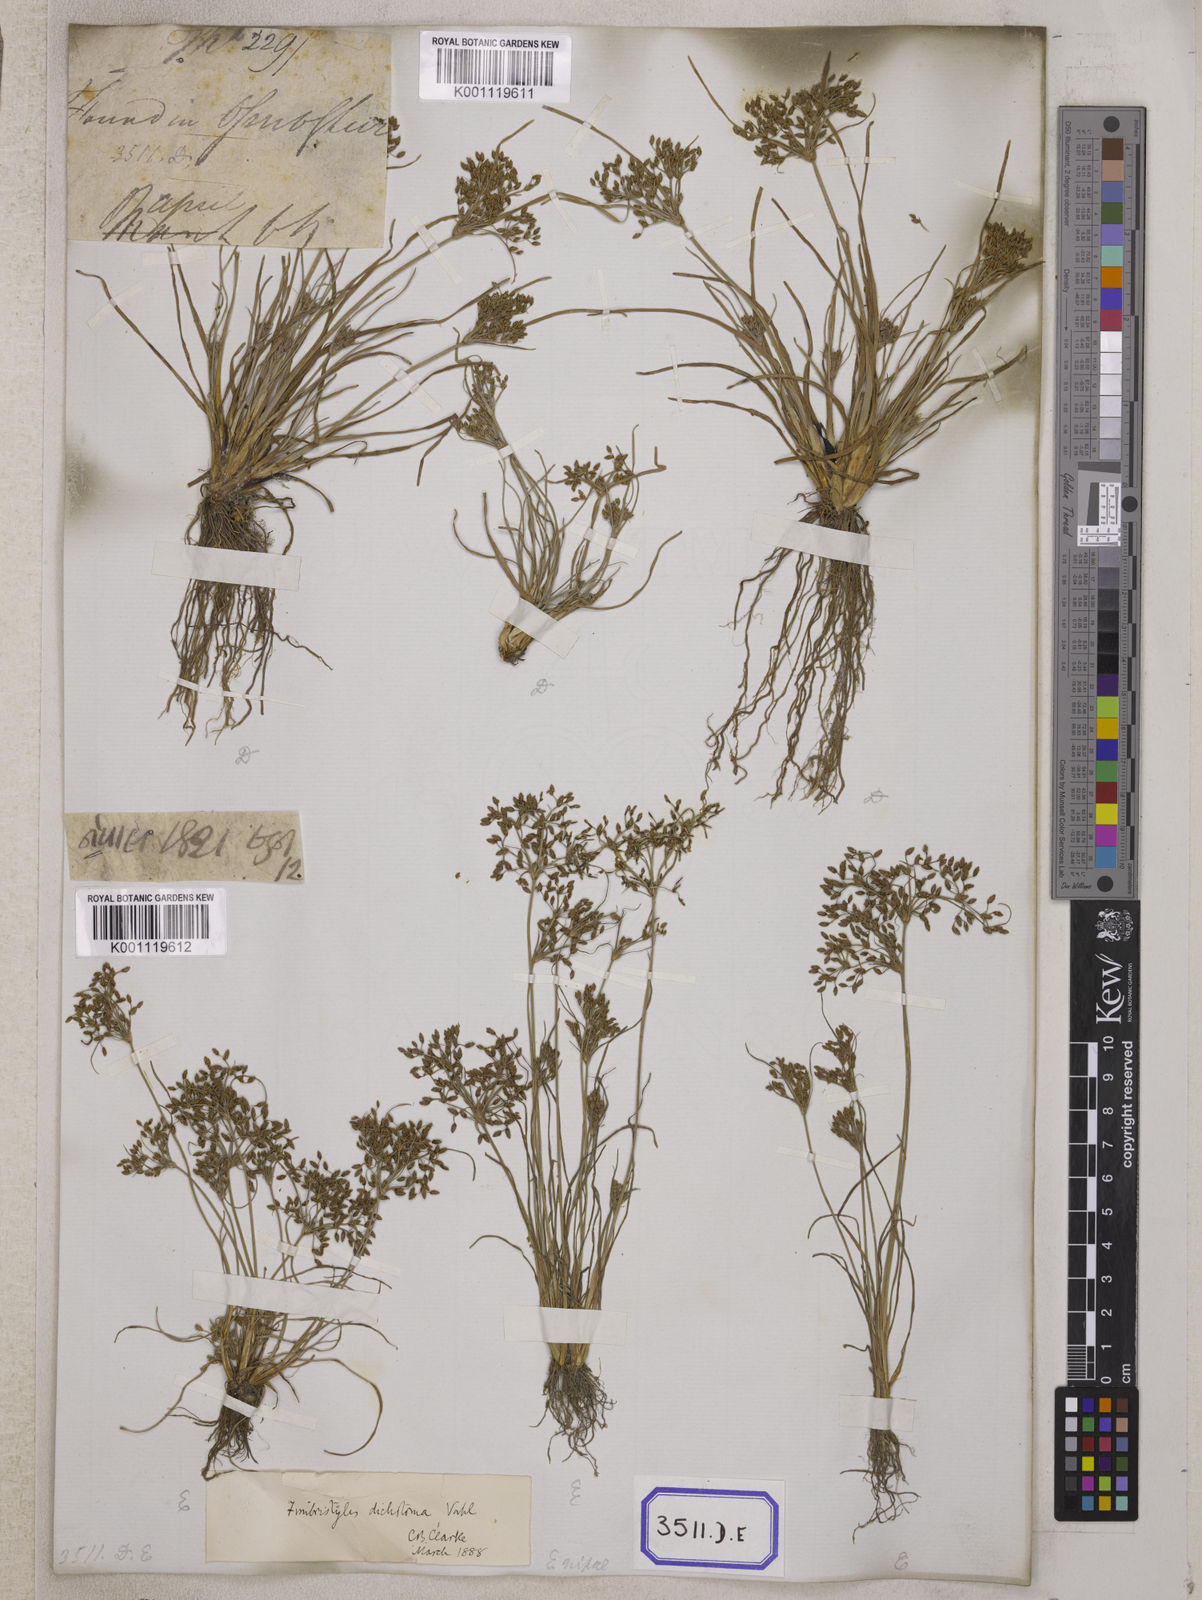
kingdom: Plantae
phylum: Tracheophyta
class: Liliopsida
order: Poales
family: Cyperaceae
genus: Fimbristylis
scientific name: Fimbristylis
